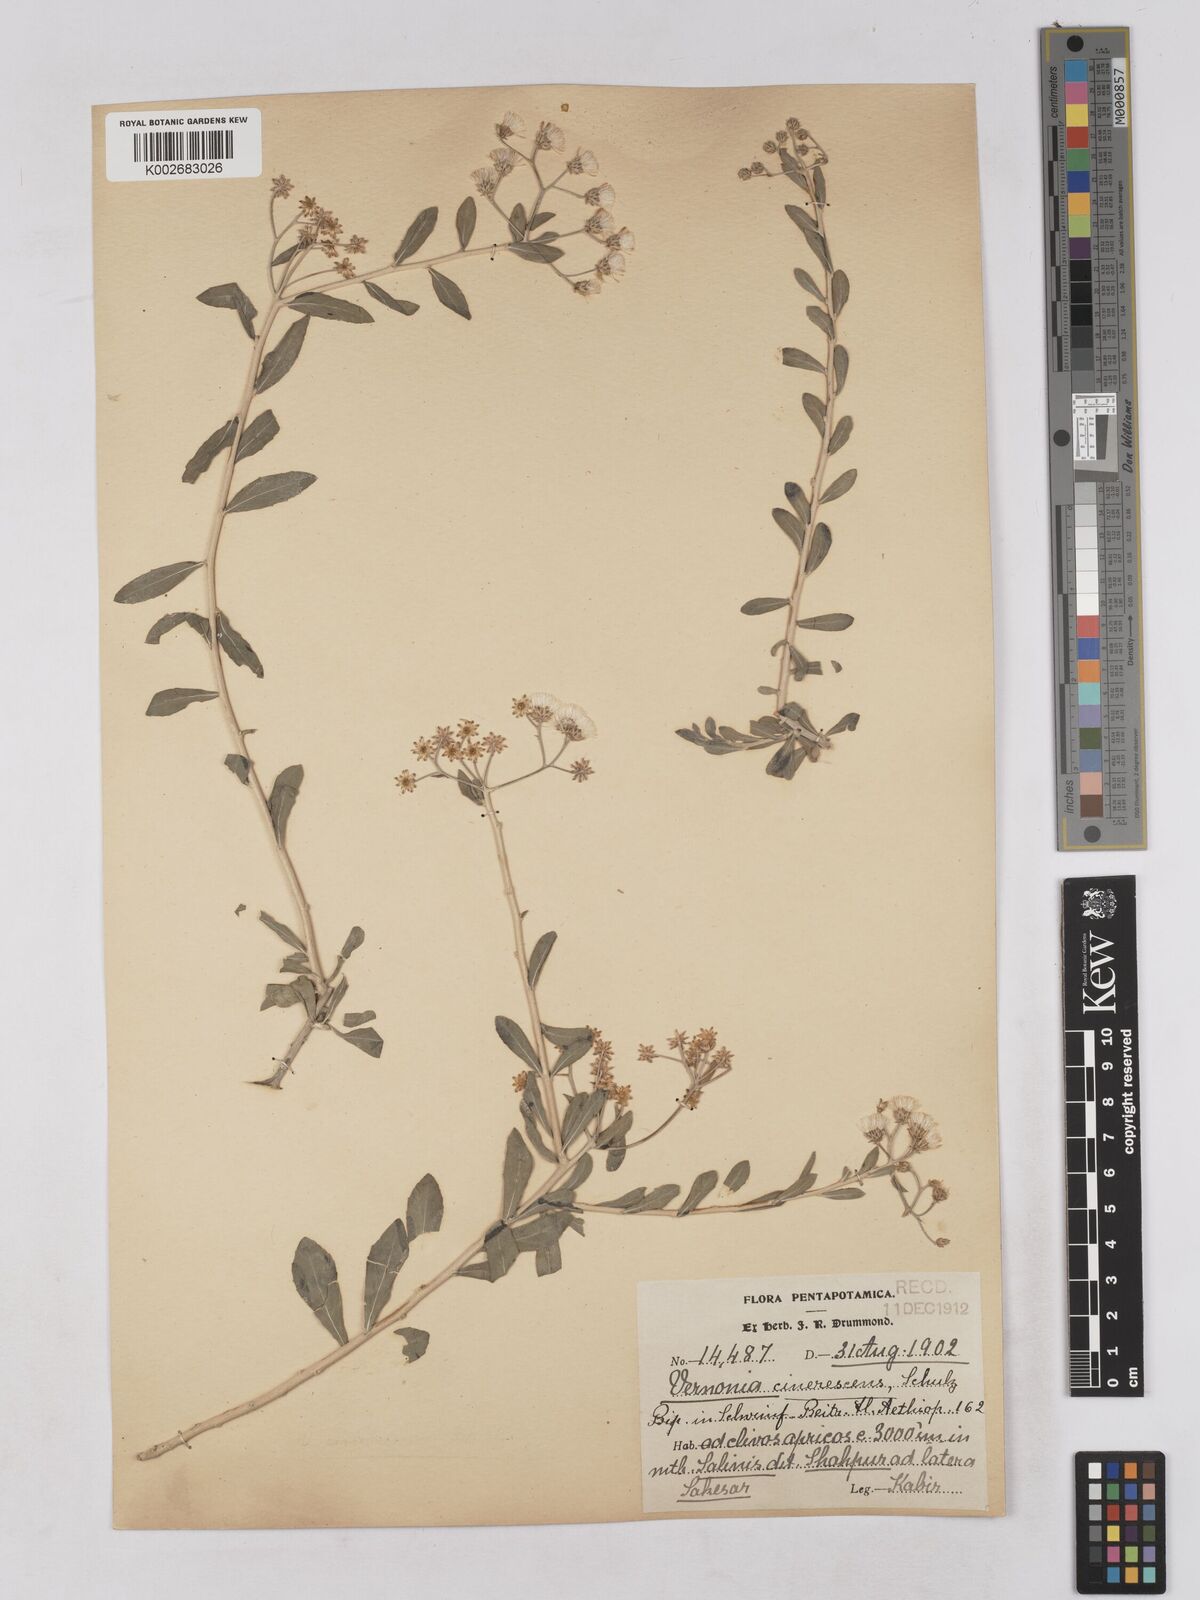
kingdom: Plantae
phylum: Tracheophyta
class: Magnoliopsida
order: Asterales
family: Asteraceae
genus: Orbivestus
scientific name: Orbivestus cinerascens
